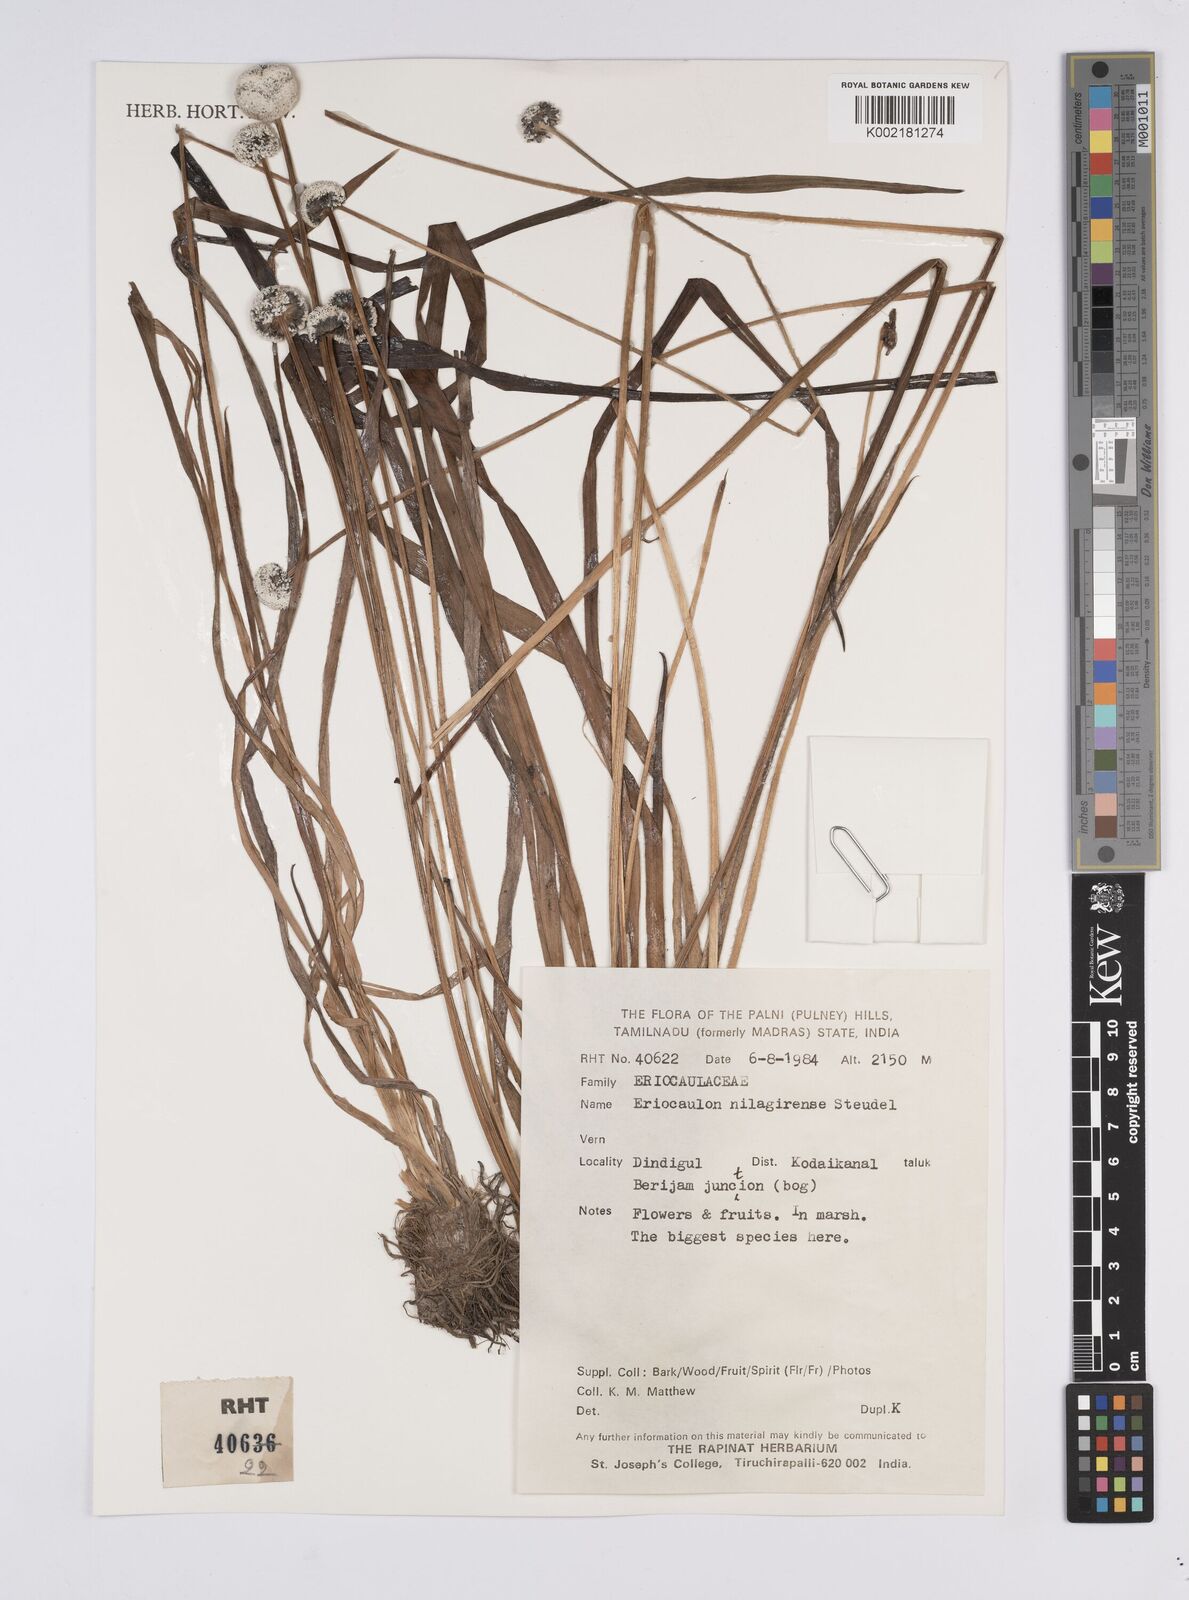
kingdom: Plantae
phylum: Tracheophyta
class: Liliopsida
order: Poales
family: Eriocaulaceae
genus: Eriocaulon
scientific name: Eriocaulon brownianum
